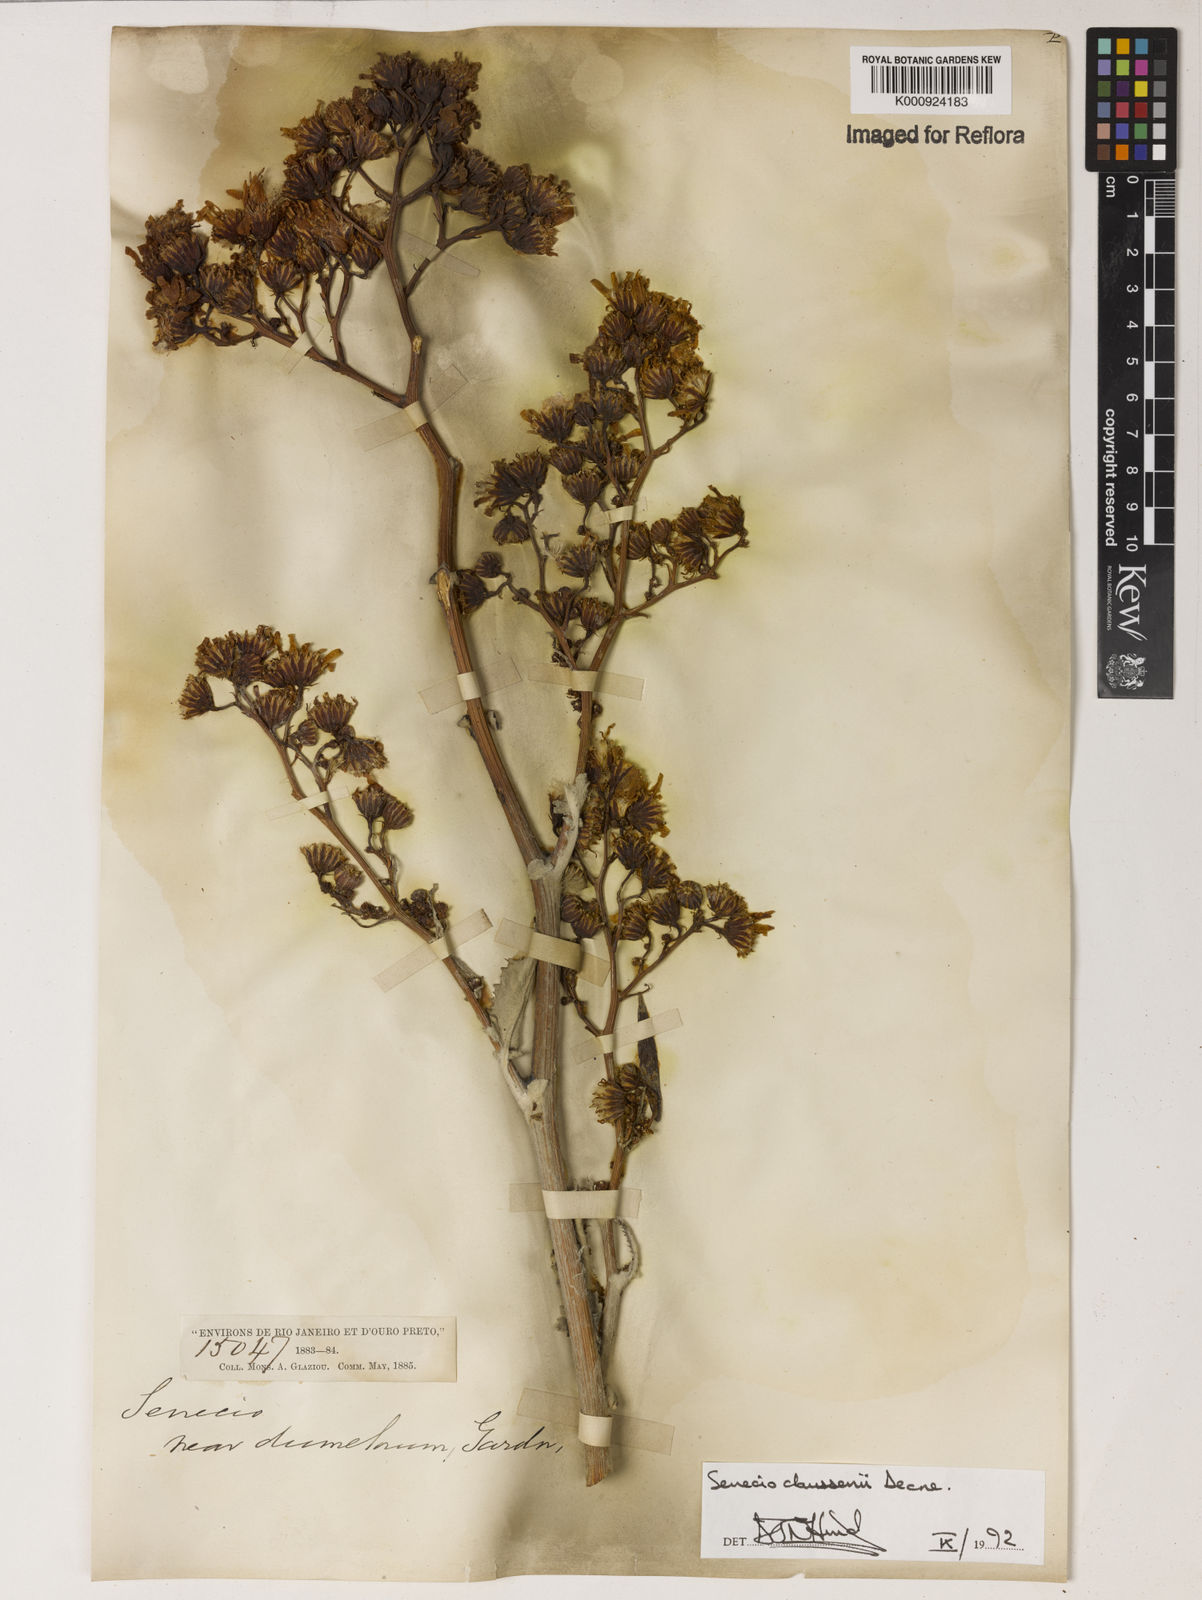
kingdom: Plantae
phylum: Tracheophyta
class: Magnoliopsida
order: Asterales
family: Asteraceae
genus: Senecio
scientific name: Senecio claussenii
